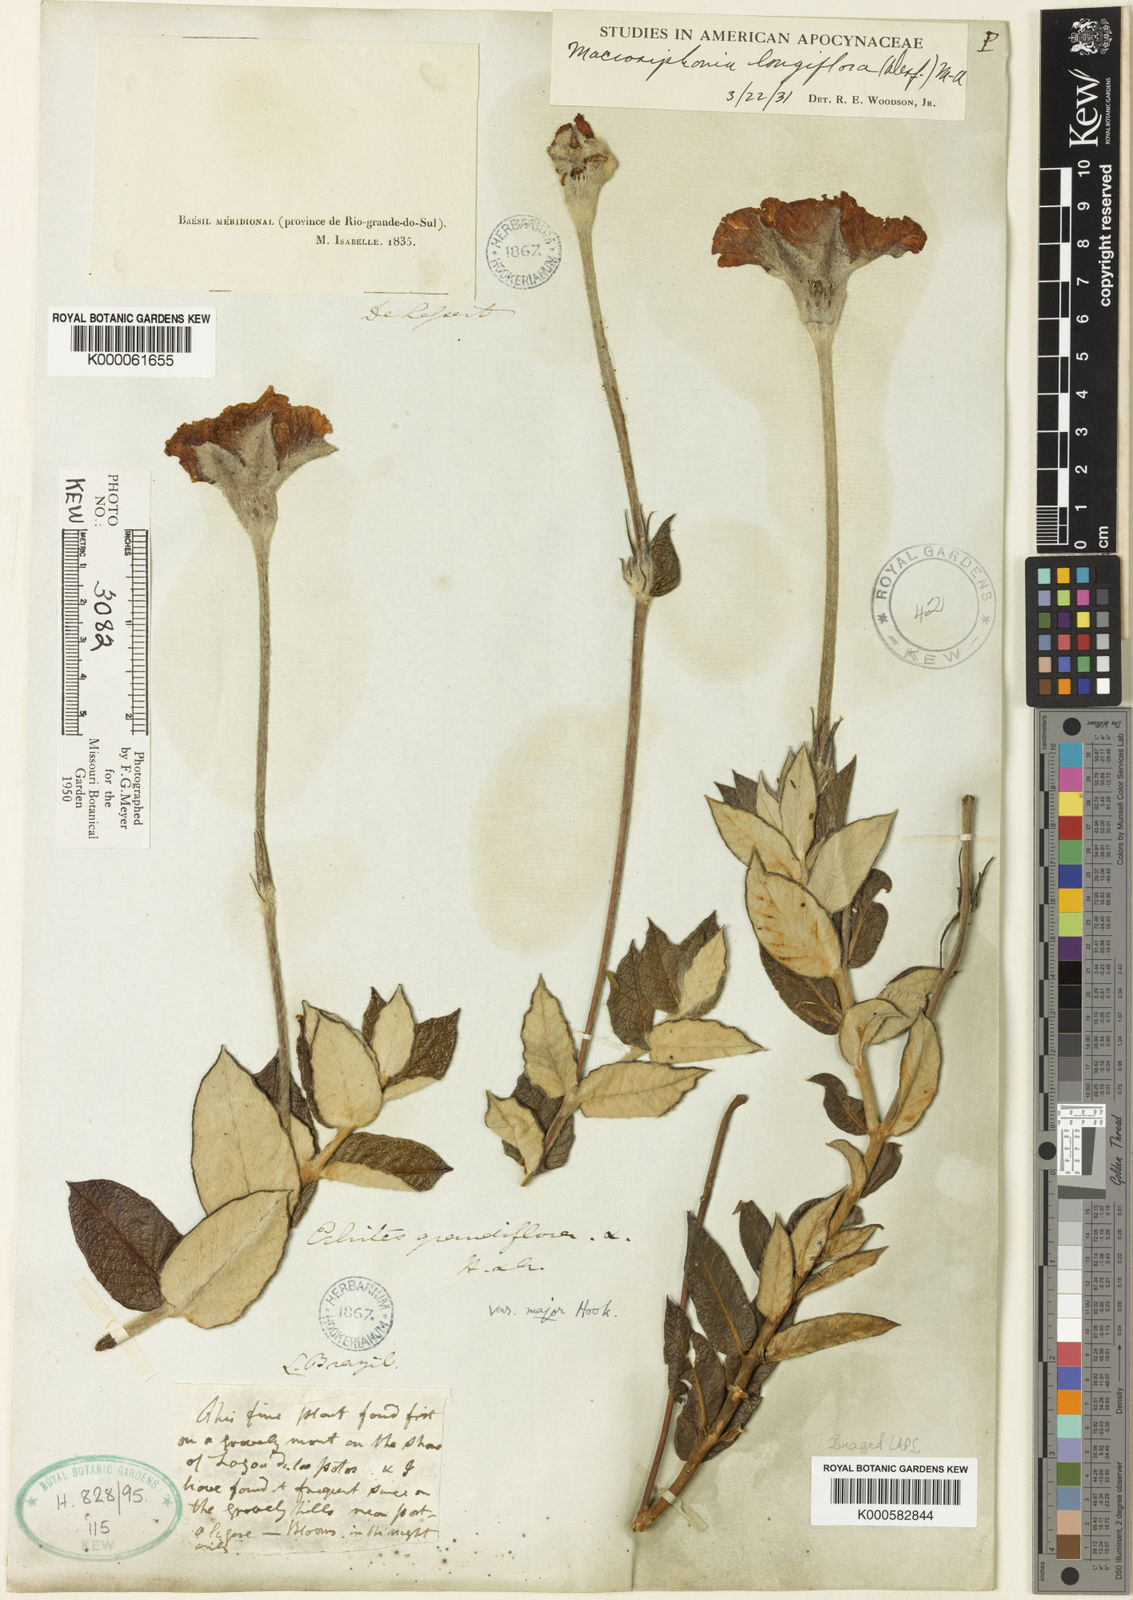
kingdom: Plantae
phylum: Tracheophyta
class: Magnoliopsida
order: Gentianales
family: Apocynaceae
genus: Mandevilla
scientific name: Mandevilla longiflora
